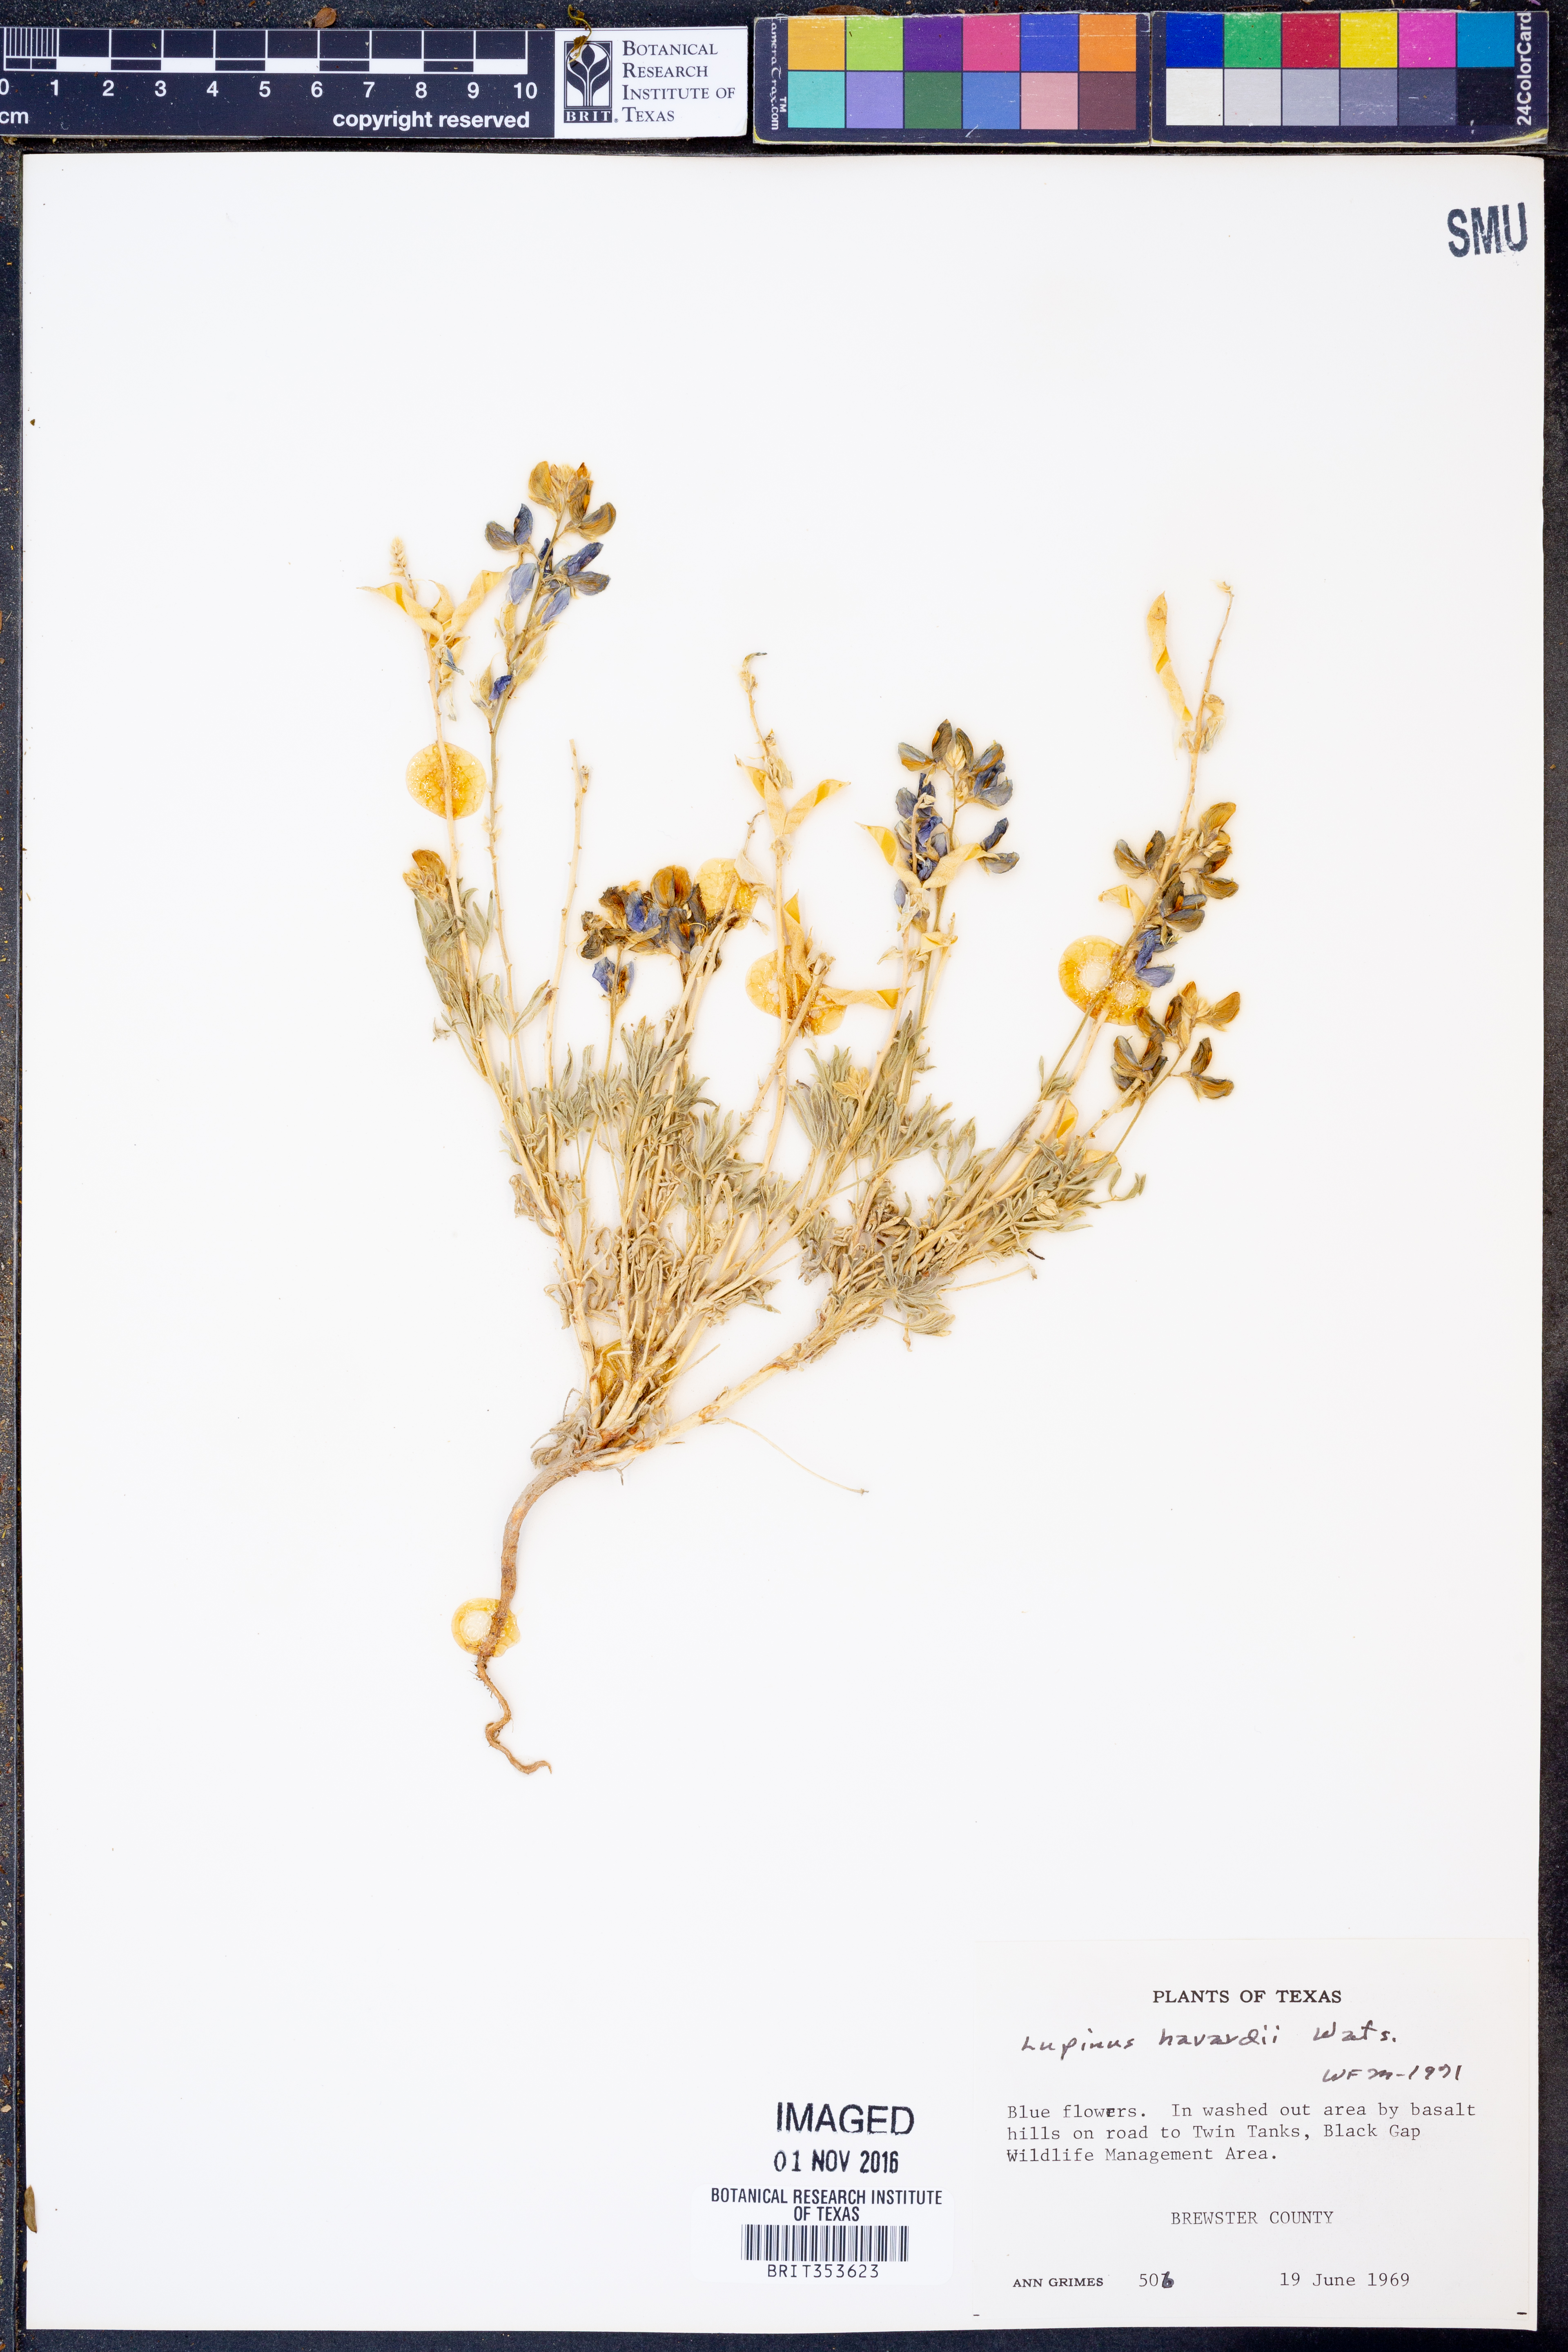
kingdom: Plantae
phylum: Tracheophyta
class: Magnoliopsida
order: Fabales
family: Fabaceae
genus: Lupinus
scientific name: Lupinus havardii
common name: Chisos bluebonnet
